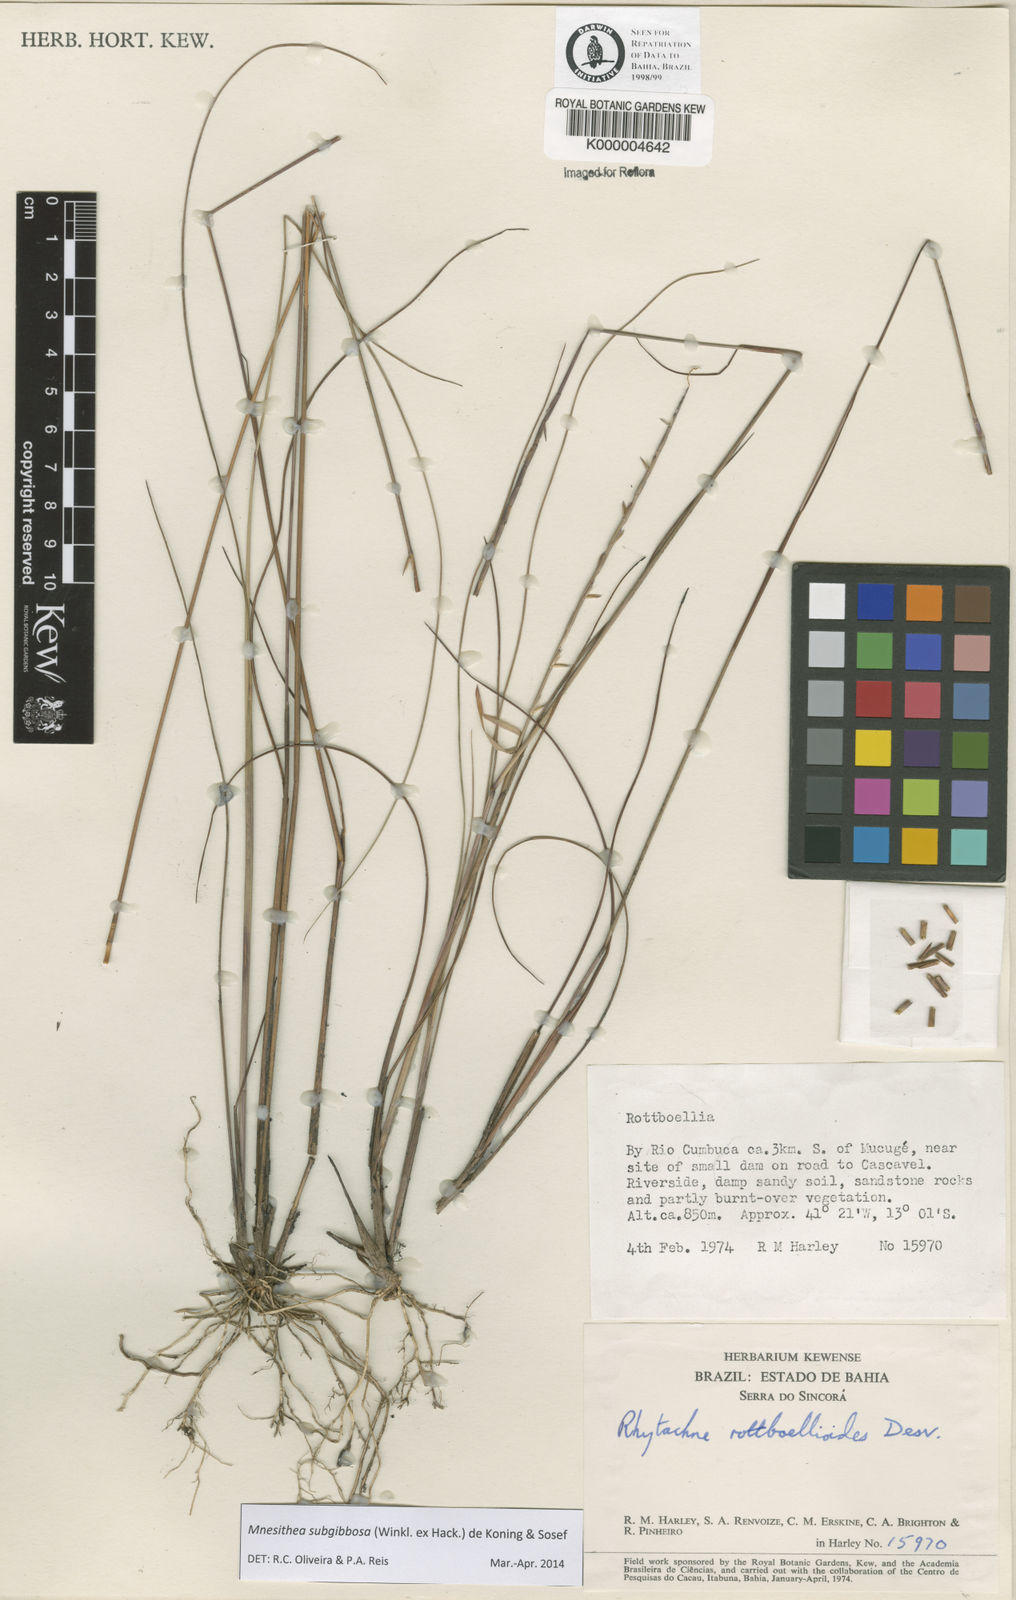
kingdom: Plantae
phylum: Tracheophyta
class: Liliopsida
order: Poales
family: Poaceae
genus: Rhytachne
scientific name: Rhytachne subgibbosa
